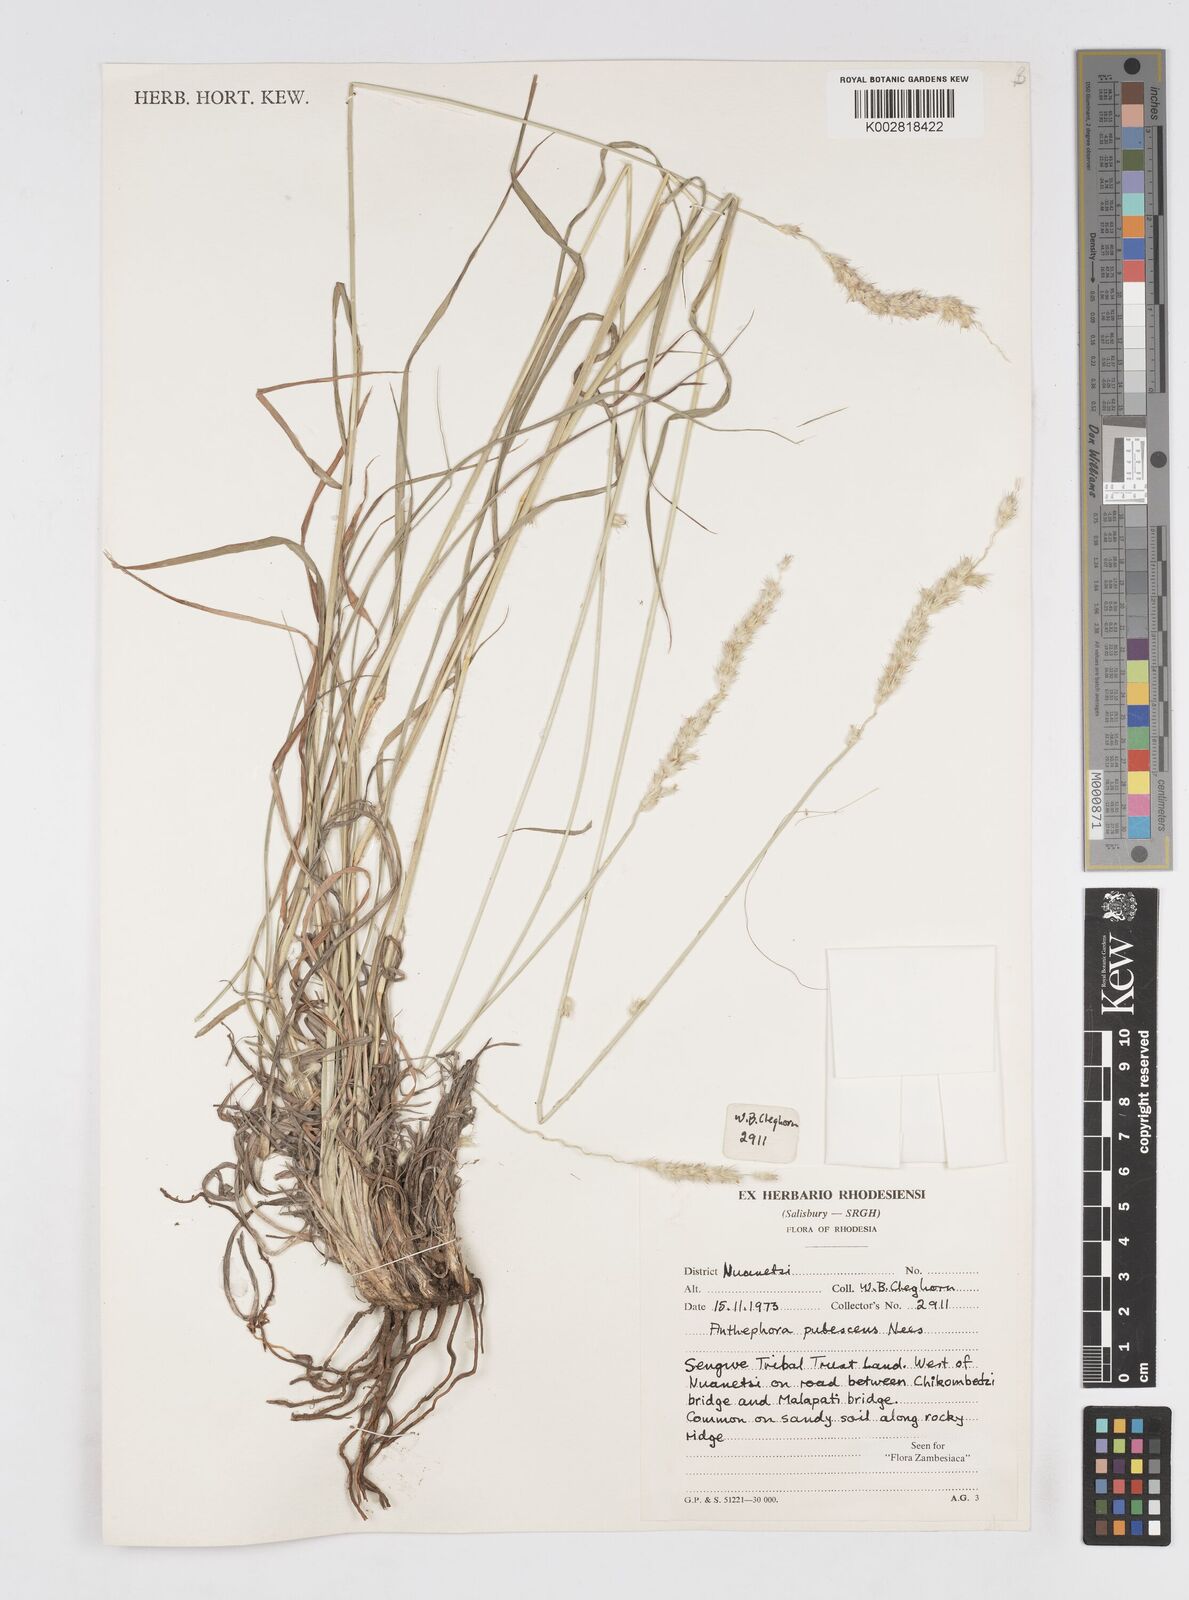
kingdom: Plantae
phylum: Tracheophyta
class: Liliopsida
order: Poales
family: Poaceae
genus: Anthephora
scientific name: Anthephora pubescens
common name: Wool grass
